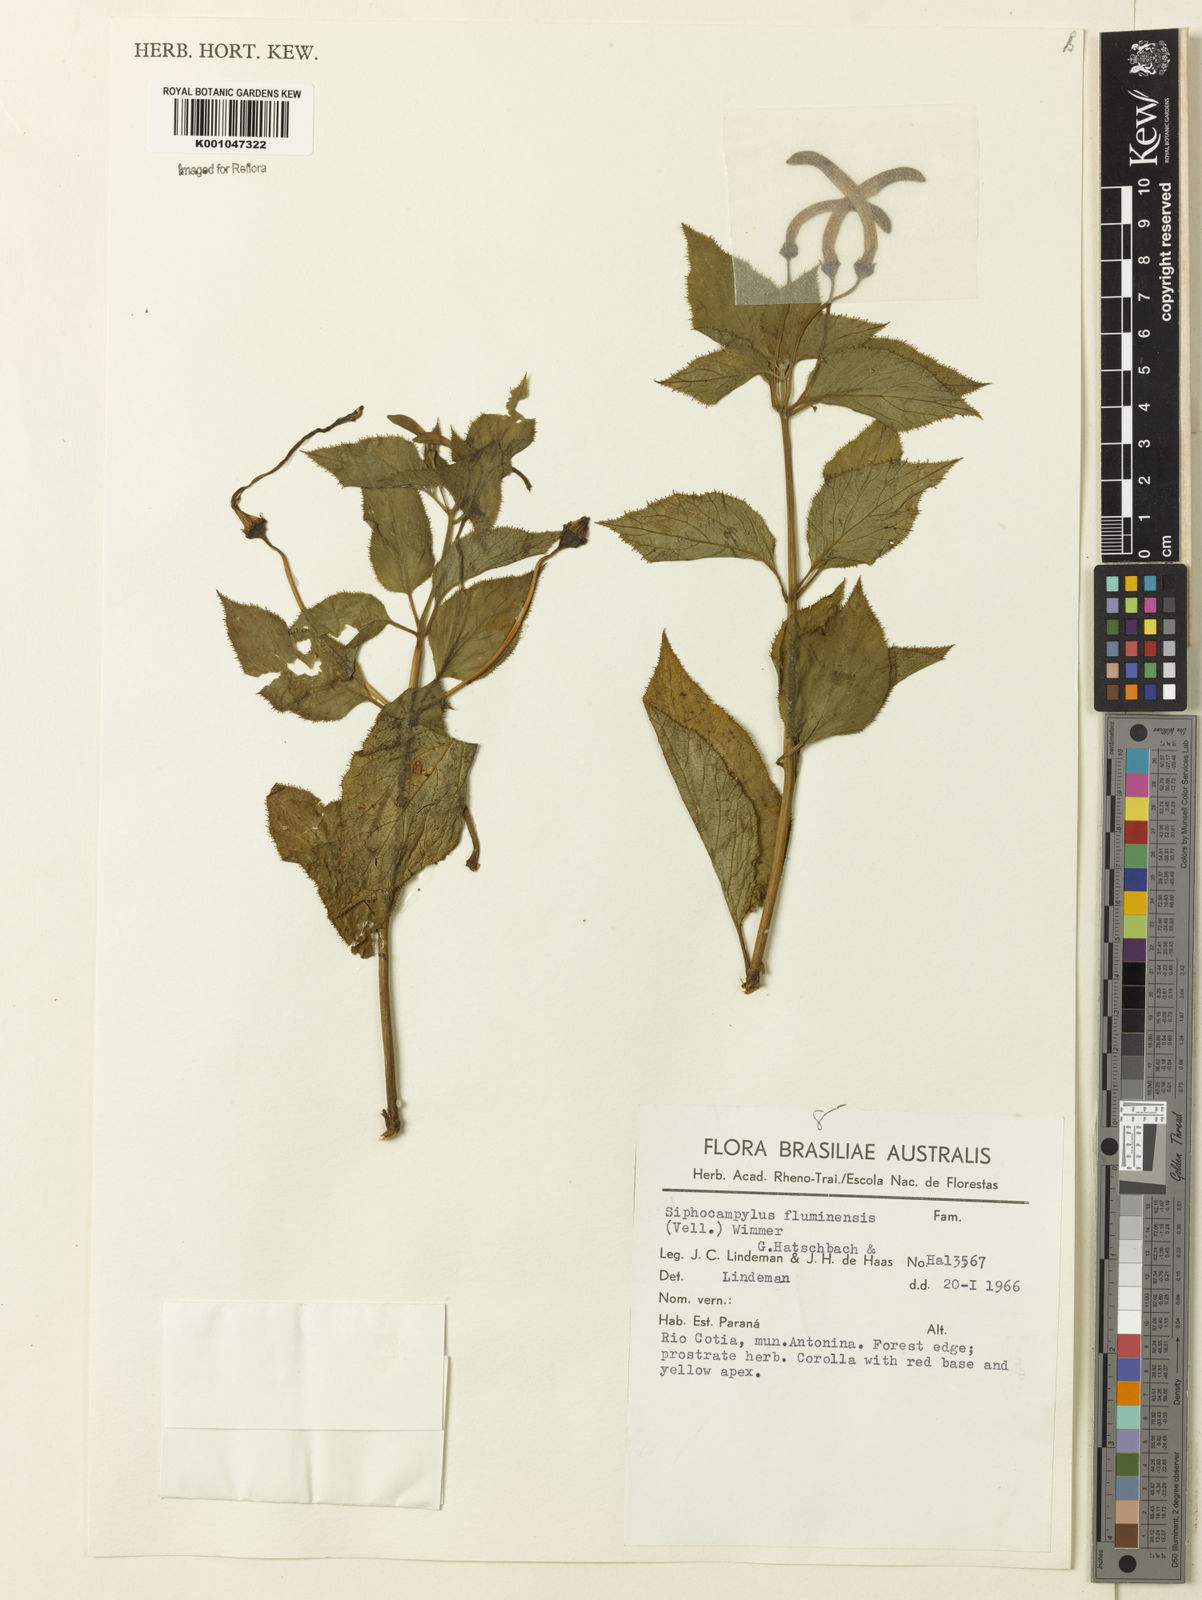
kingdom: Plantae
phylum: Tracheophyta
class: Magnoliopsida
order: Asterales
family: Campanulaceae
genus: Siphocampylus
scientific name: Siphocampylus fluminensis
